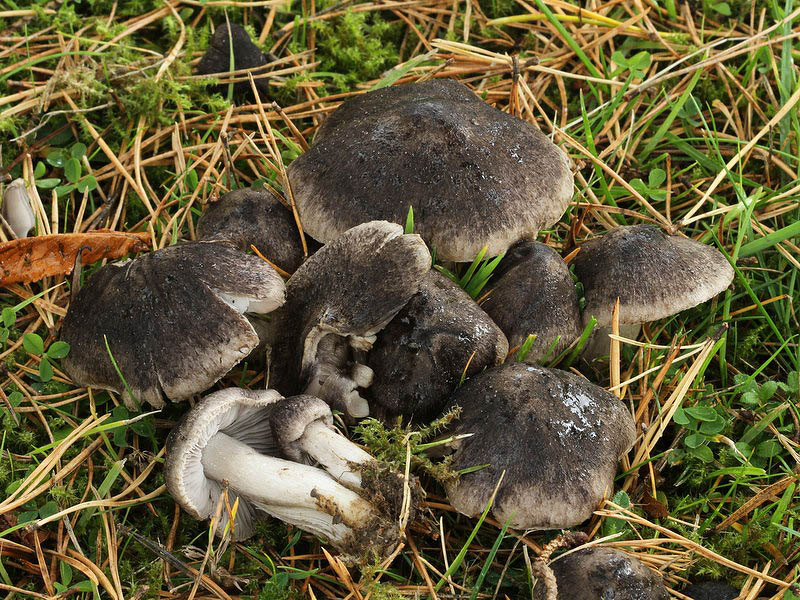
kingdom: Fungi
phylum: Basidiomycota
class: Agaricomycetes
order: Agaricales
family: Tricholomataceae
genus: Tricholoma
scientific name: Tricholoma terreum
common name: jordfarvet ridderhat
